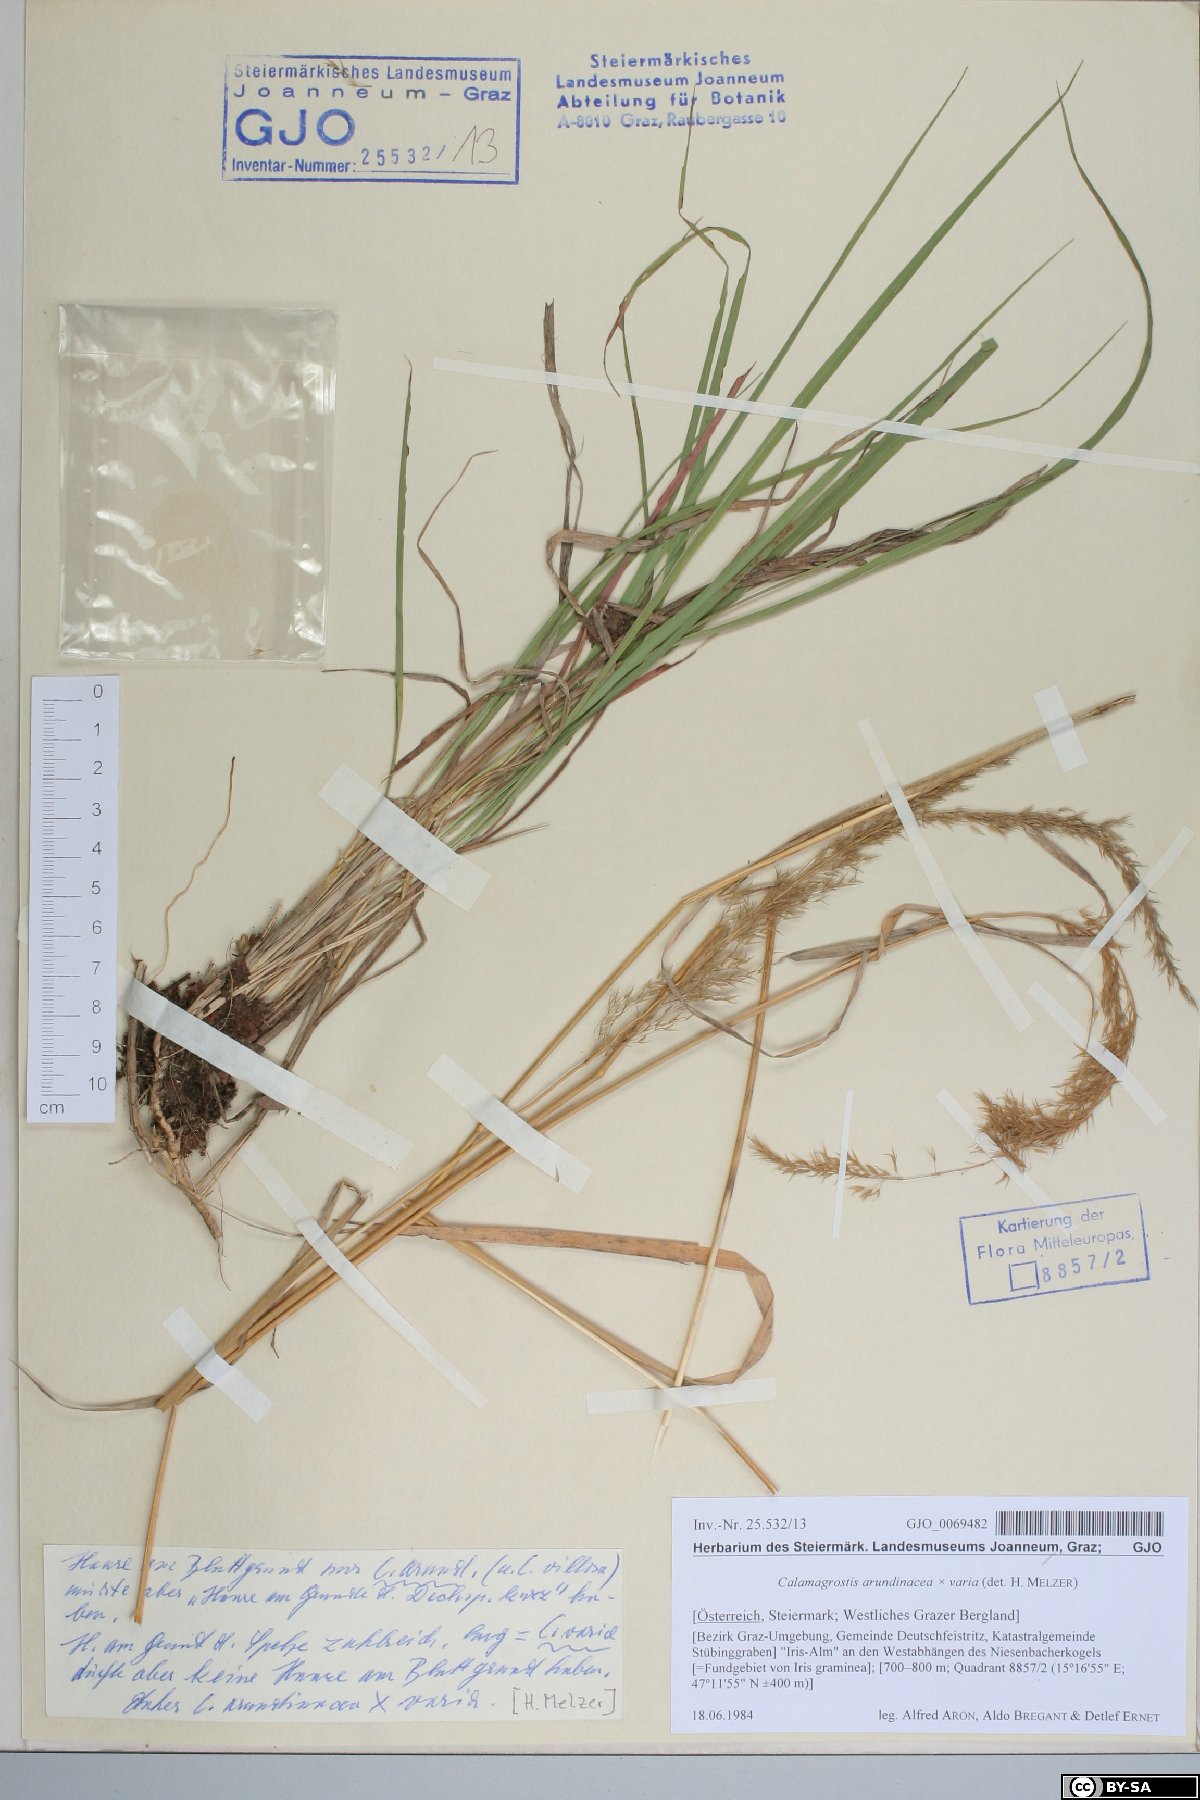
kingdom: Plantae
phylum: Tracheophyta
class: Liliopsida
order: Poales
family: Poaceae
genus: Calamagrostis
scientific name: Calamagrostis arundinacea
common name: Metskastik
